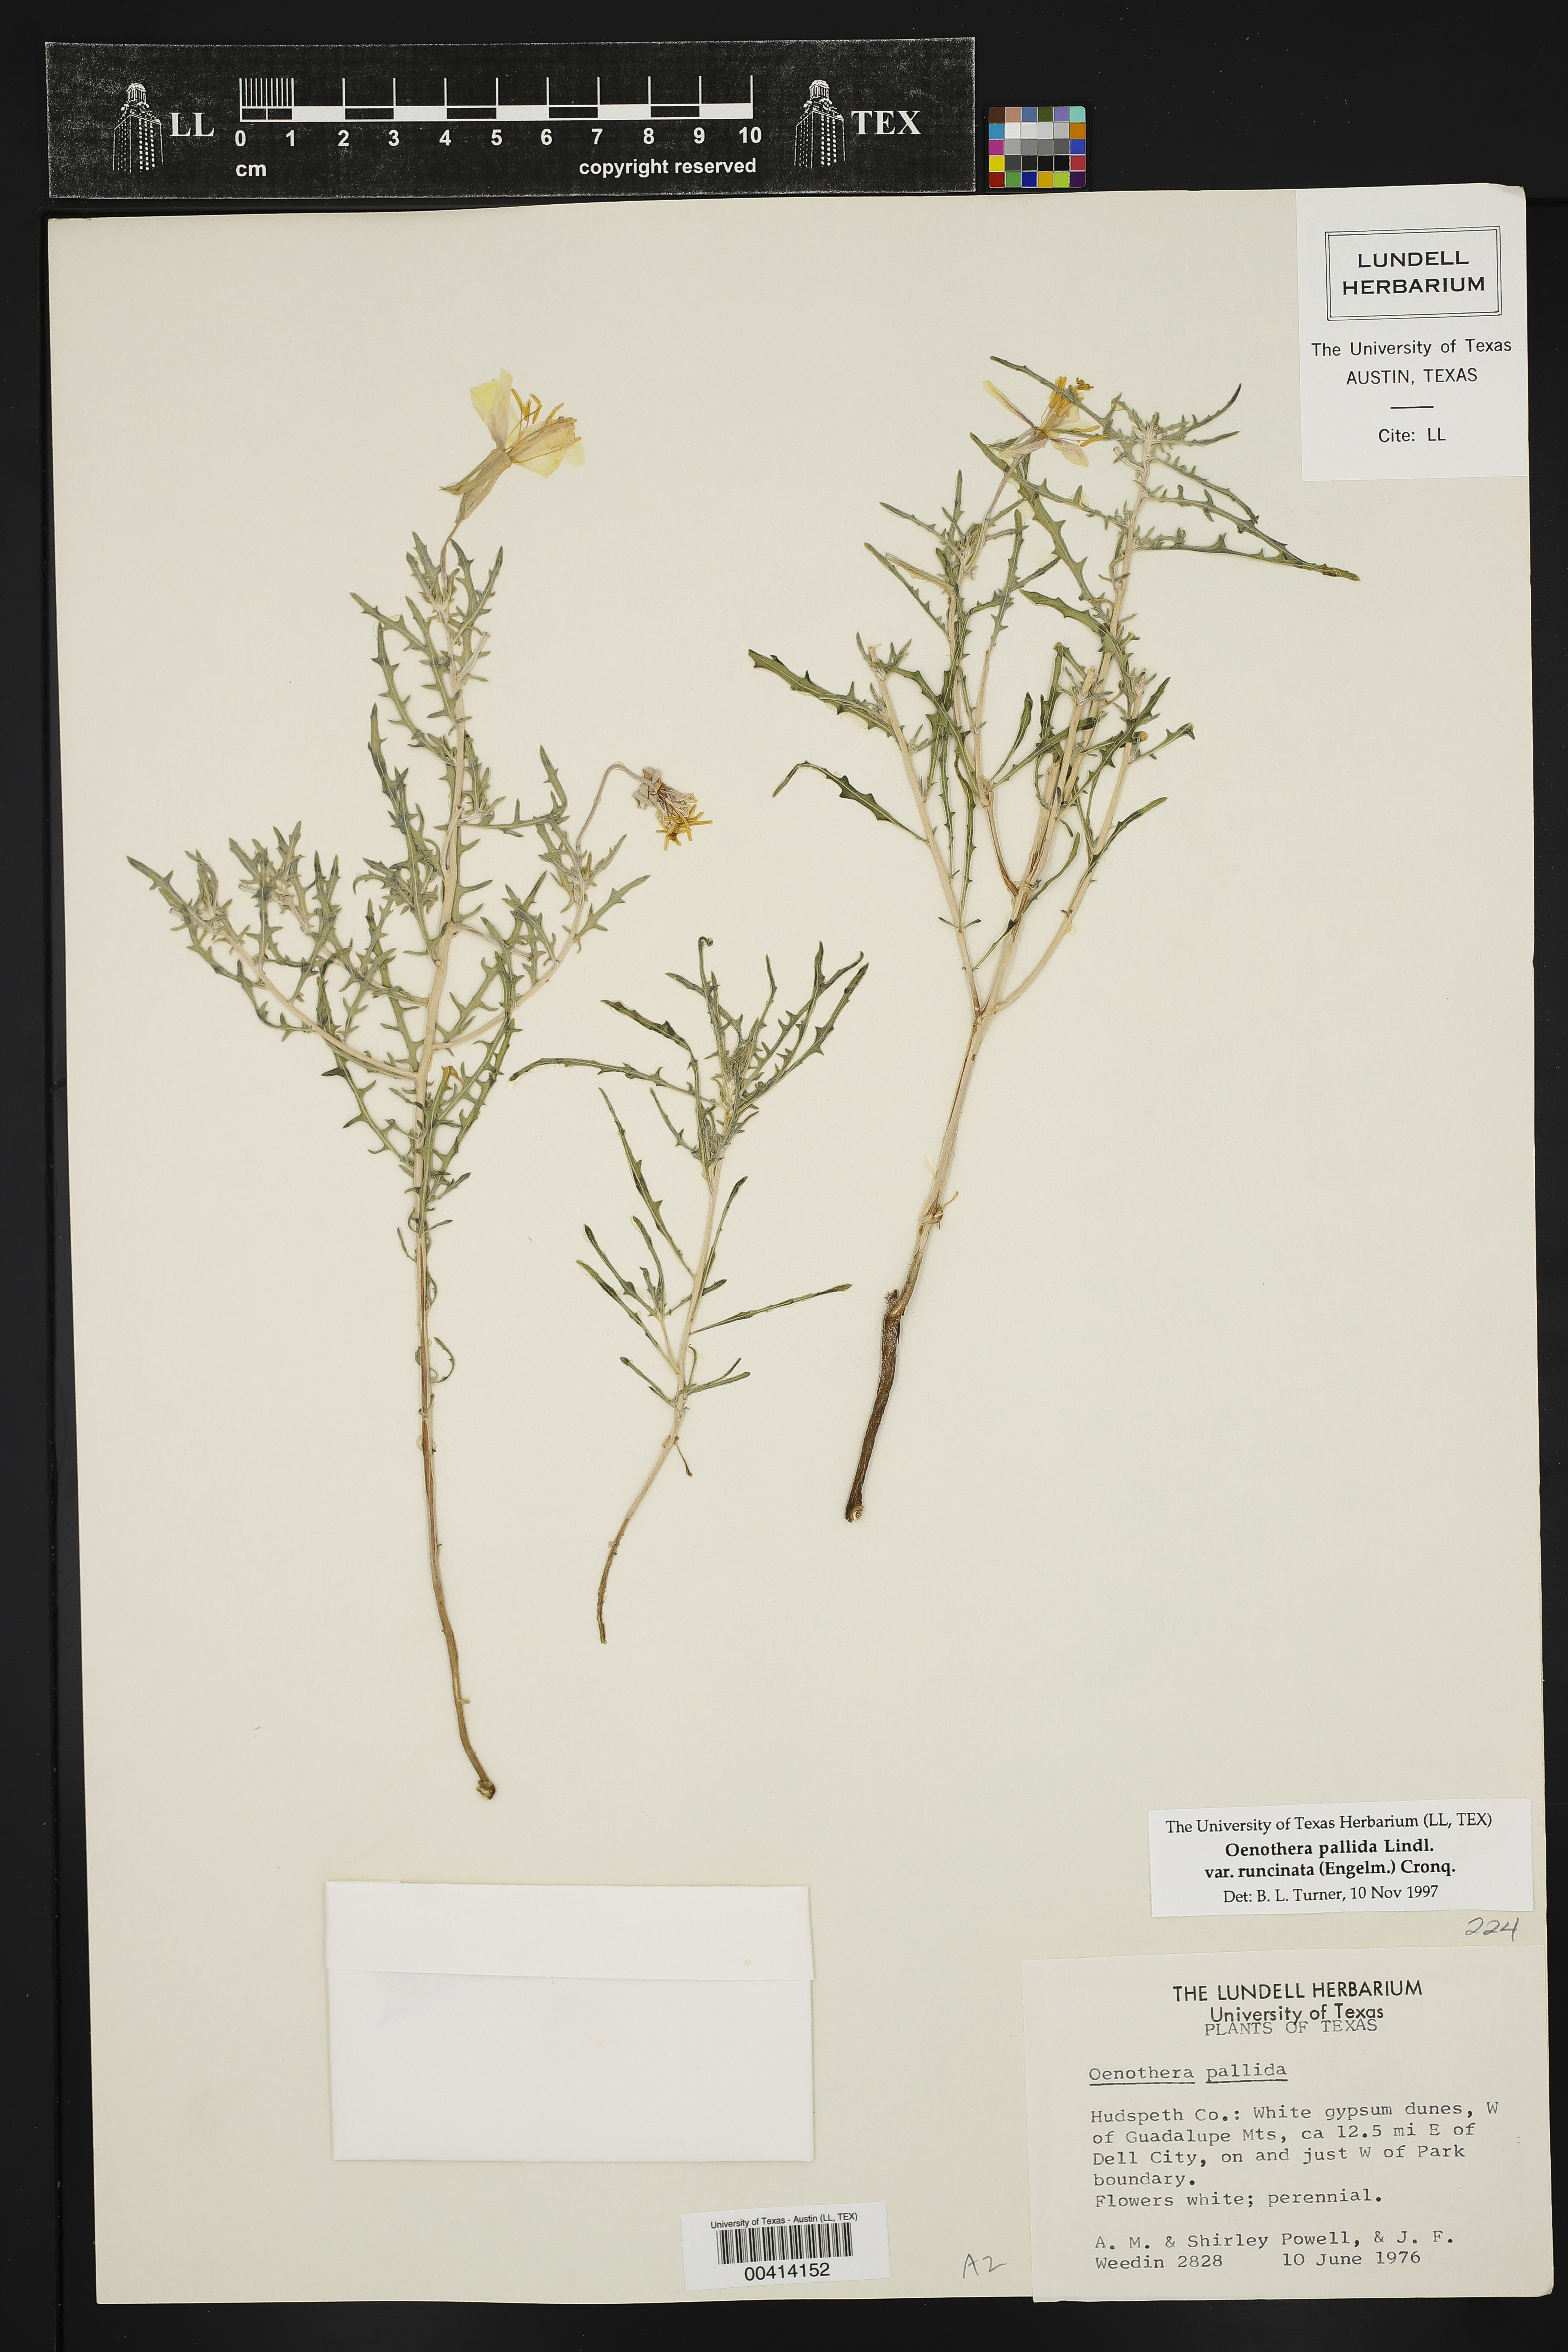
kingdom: Plantae
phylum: Tracheophyta
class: Magnoliopsida
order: Myrtales
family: Onagraceae
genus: Oenothera
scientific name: Oenothera pallida
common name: Pale evening-primrose
